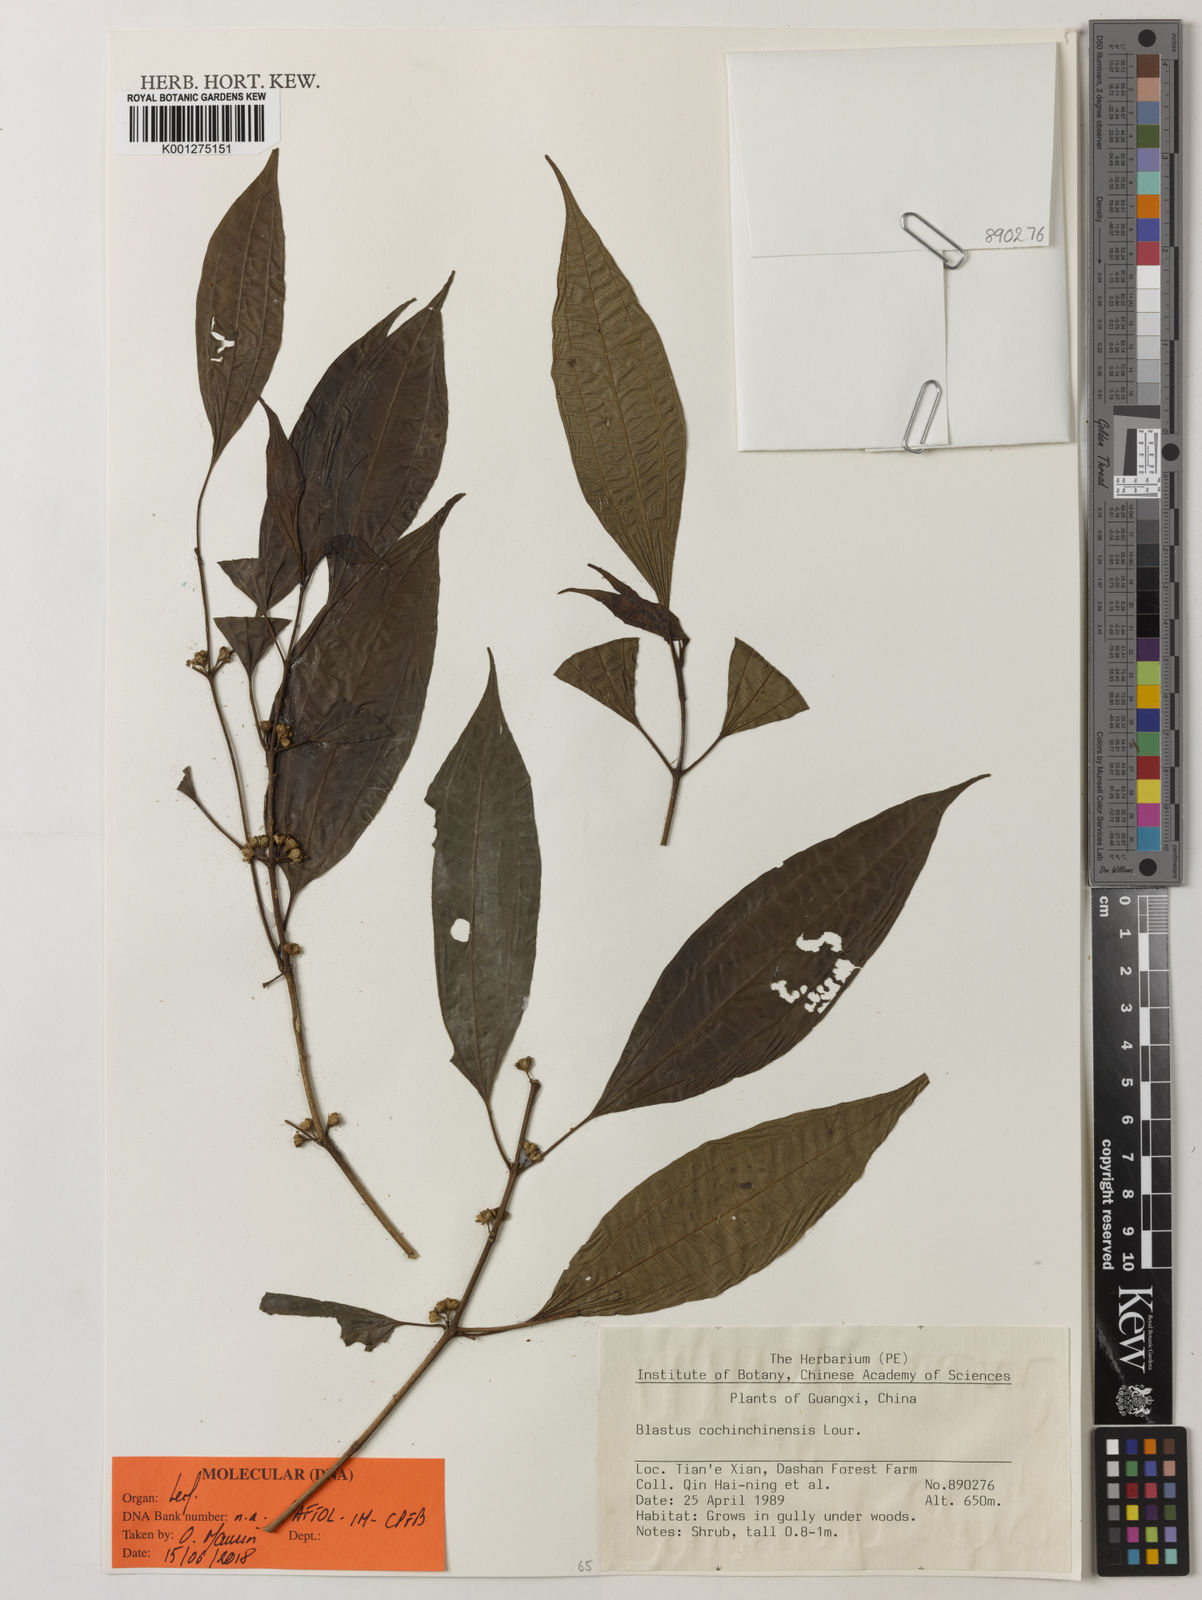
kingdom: Plantae
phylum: Tracheophyta
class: Magnoliopsida
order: Myrtales
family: Melastomataceae
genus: Blastus
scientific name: Blastus cochinchinensis
